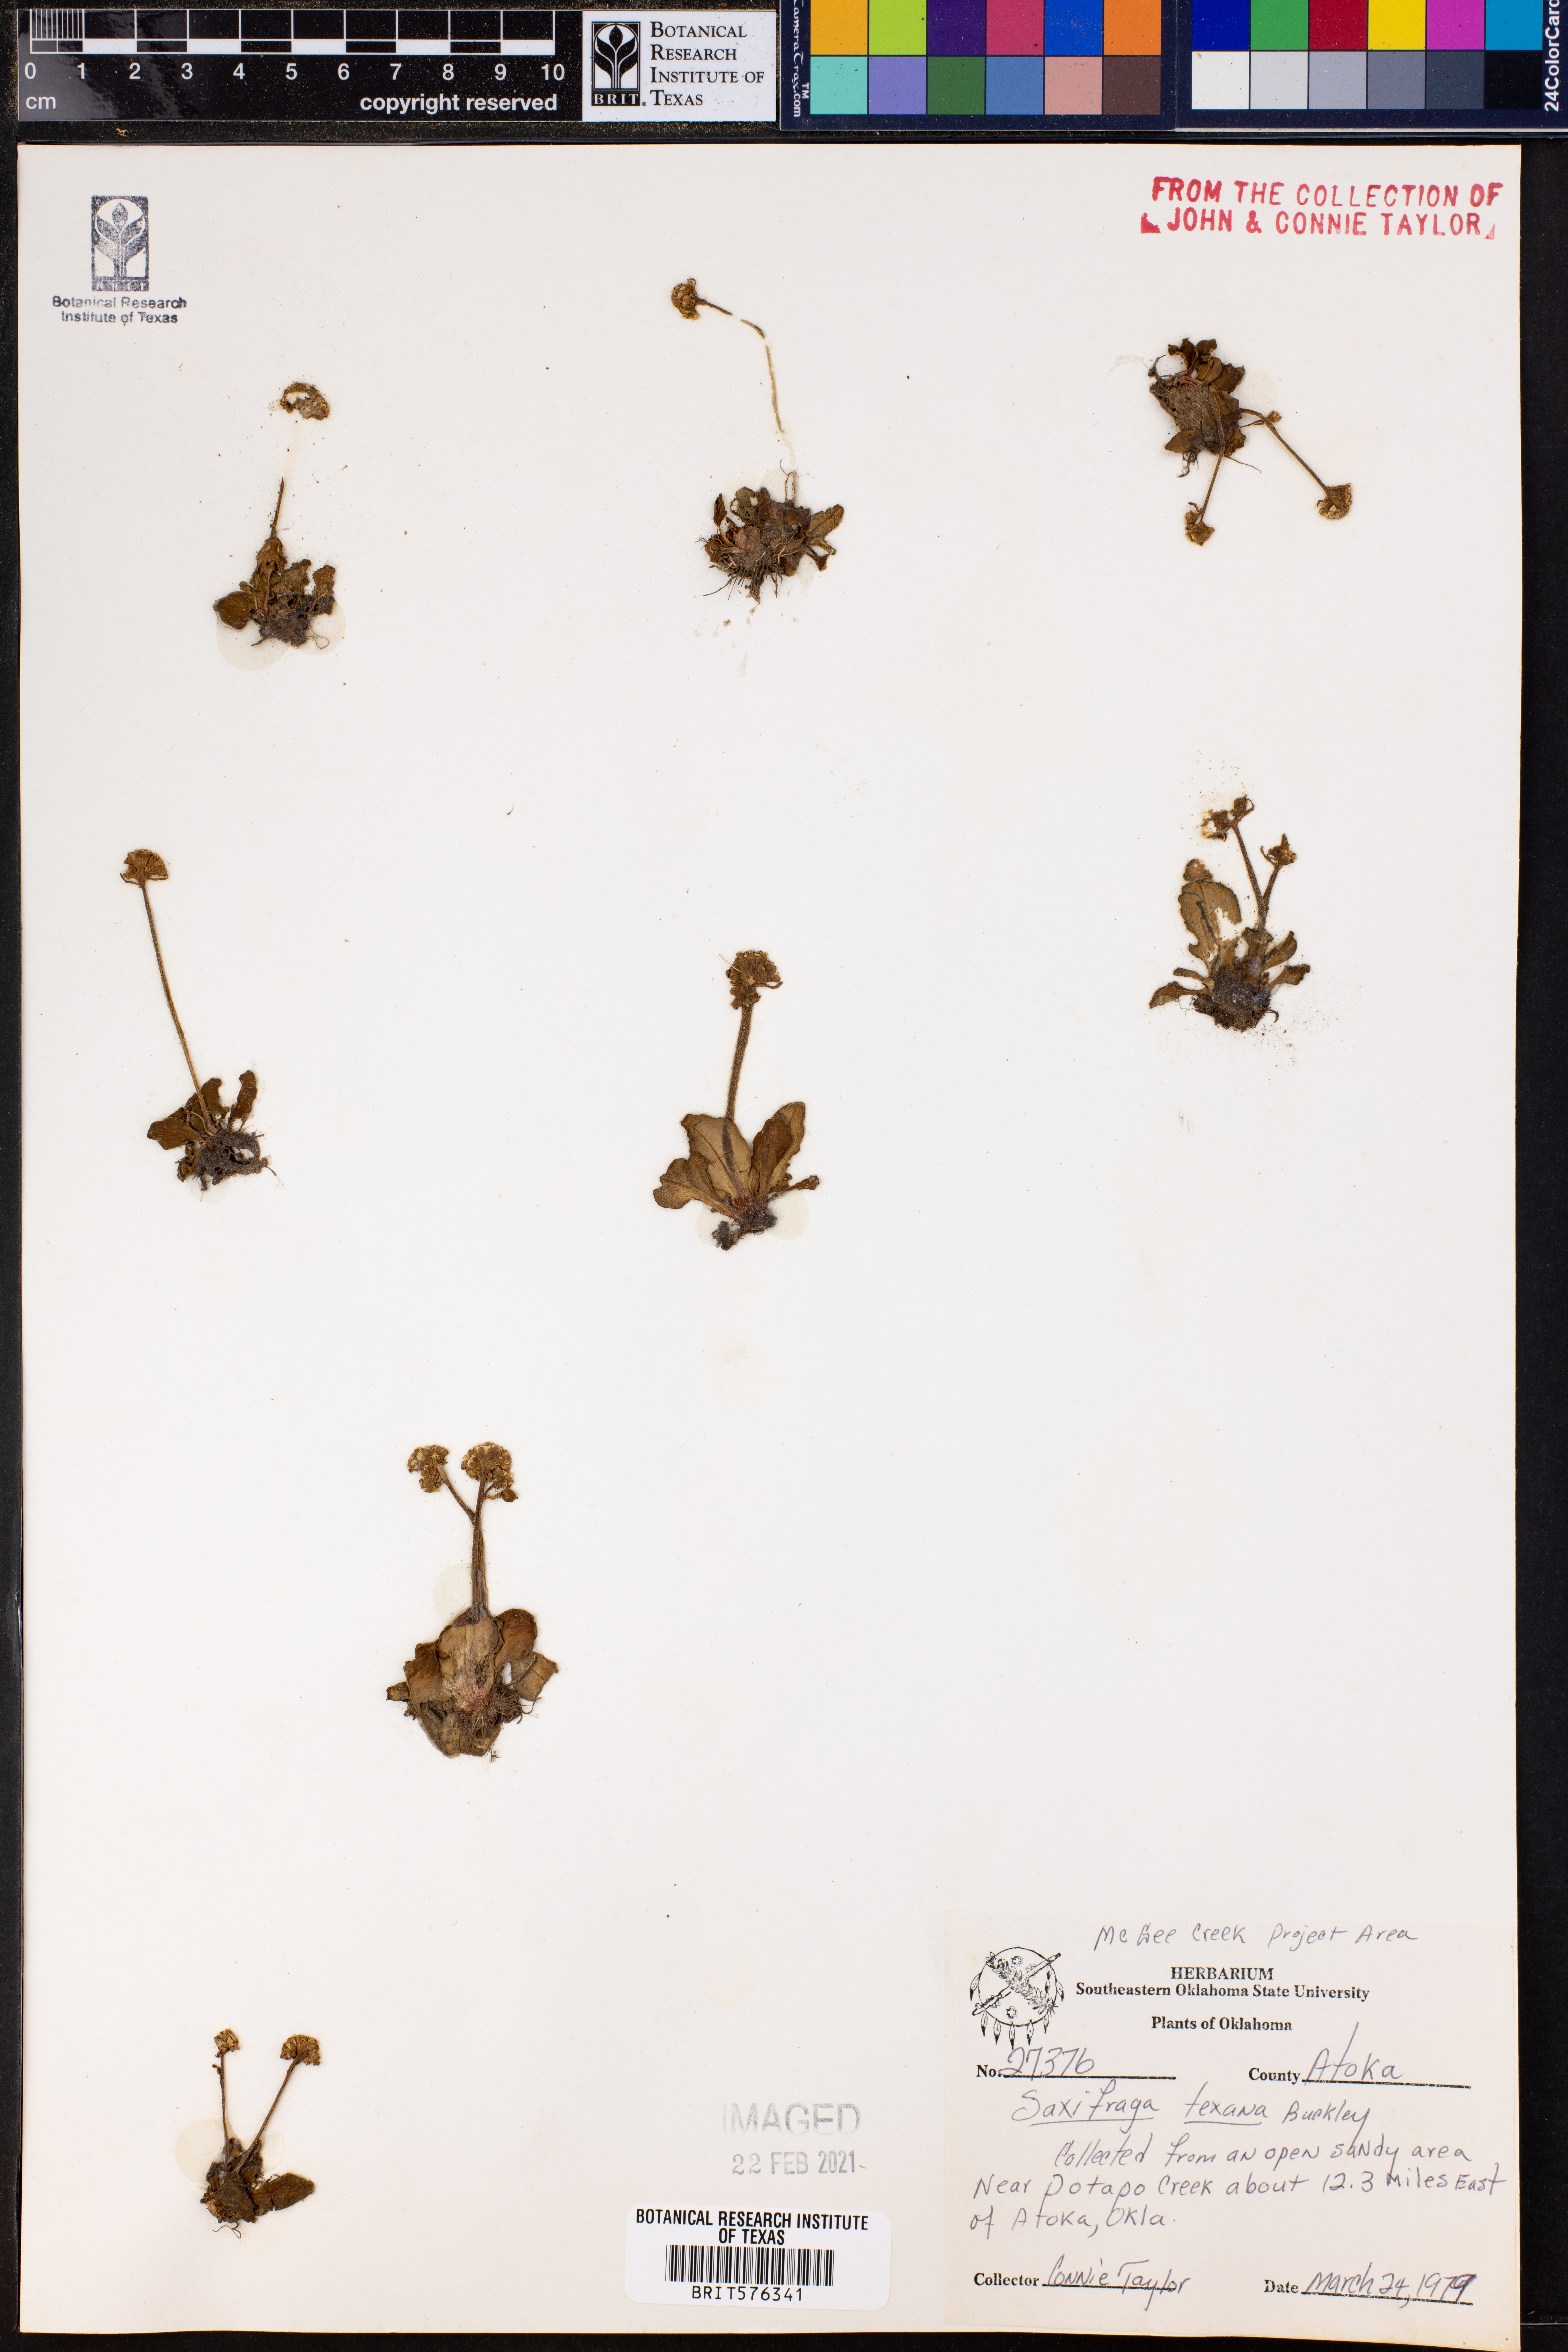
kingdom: Plantae
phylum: Tracheophyta
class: Magnoliopsida
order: Saxifragales
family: Saxifragaceae
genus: Micranthes
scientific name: Micranthes texana
